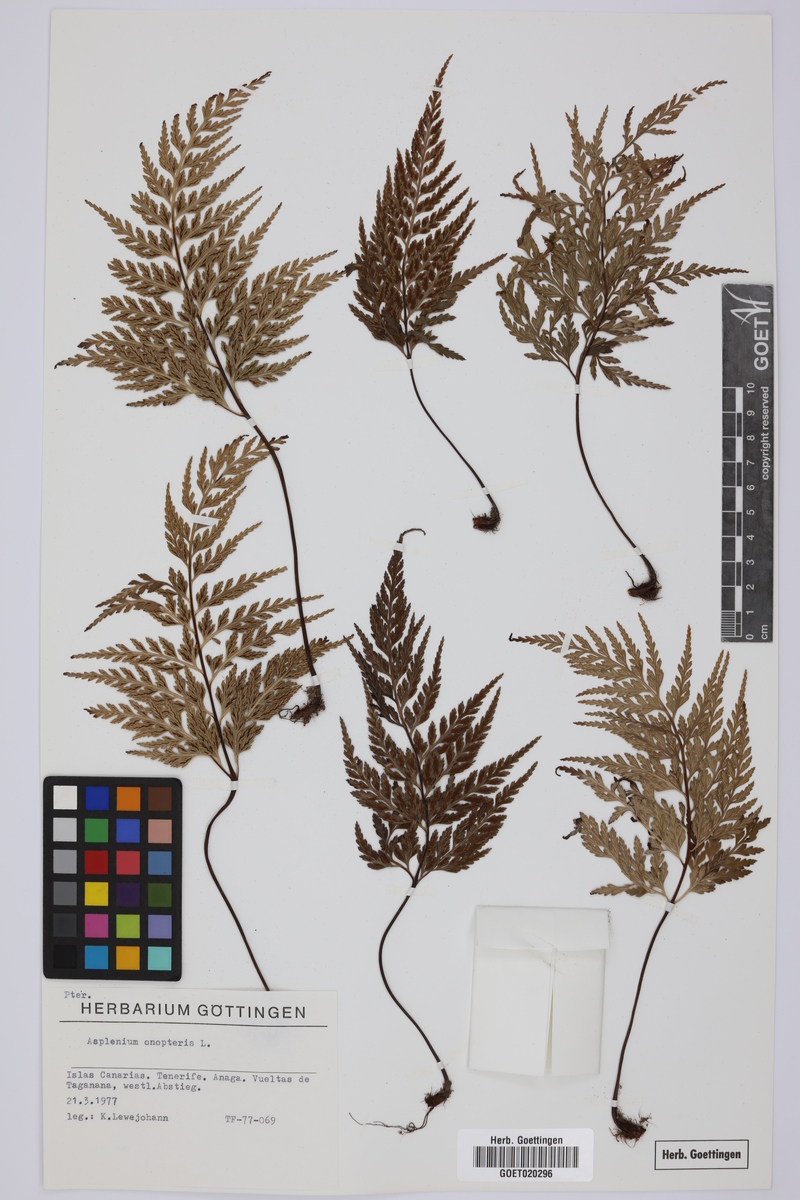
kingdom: Plantae
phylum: Tracheophyta
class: Polypodiopsida
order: Polypodiales
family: Aspleniaceae
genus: Asplenium
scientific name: Asplenium onopteris
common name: Irish spleenwort
